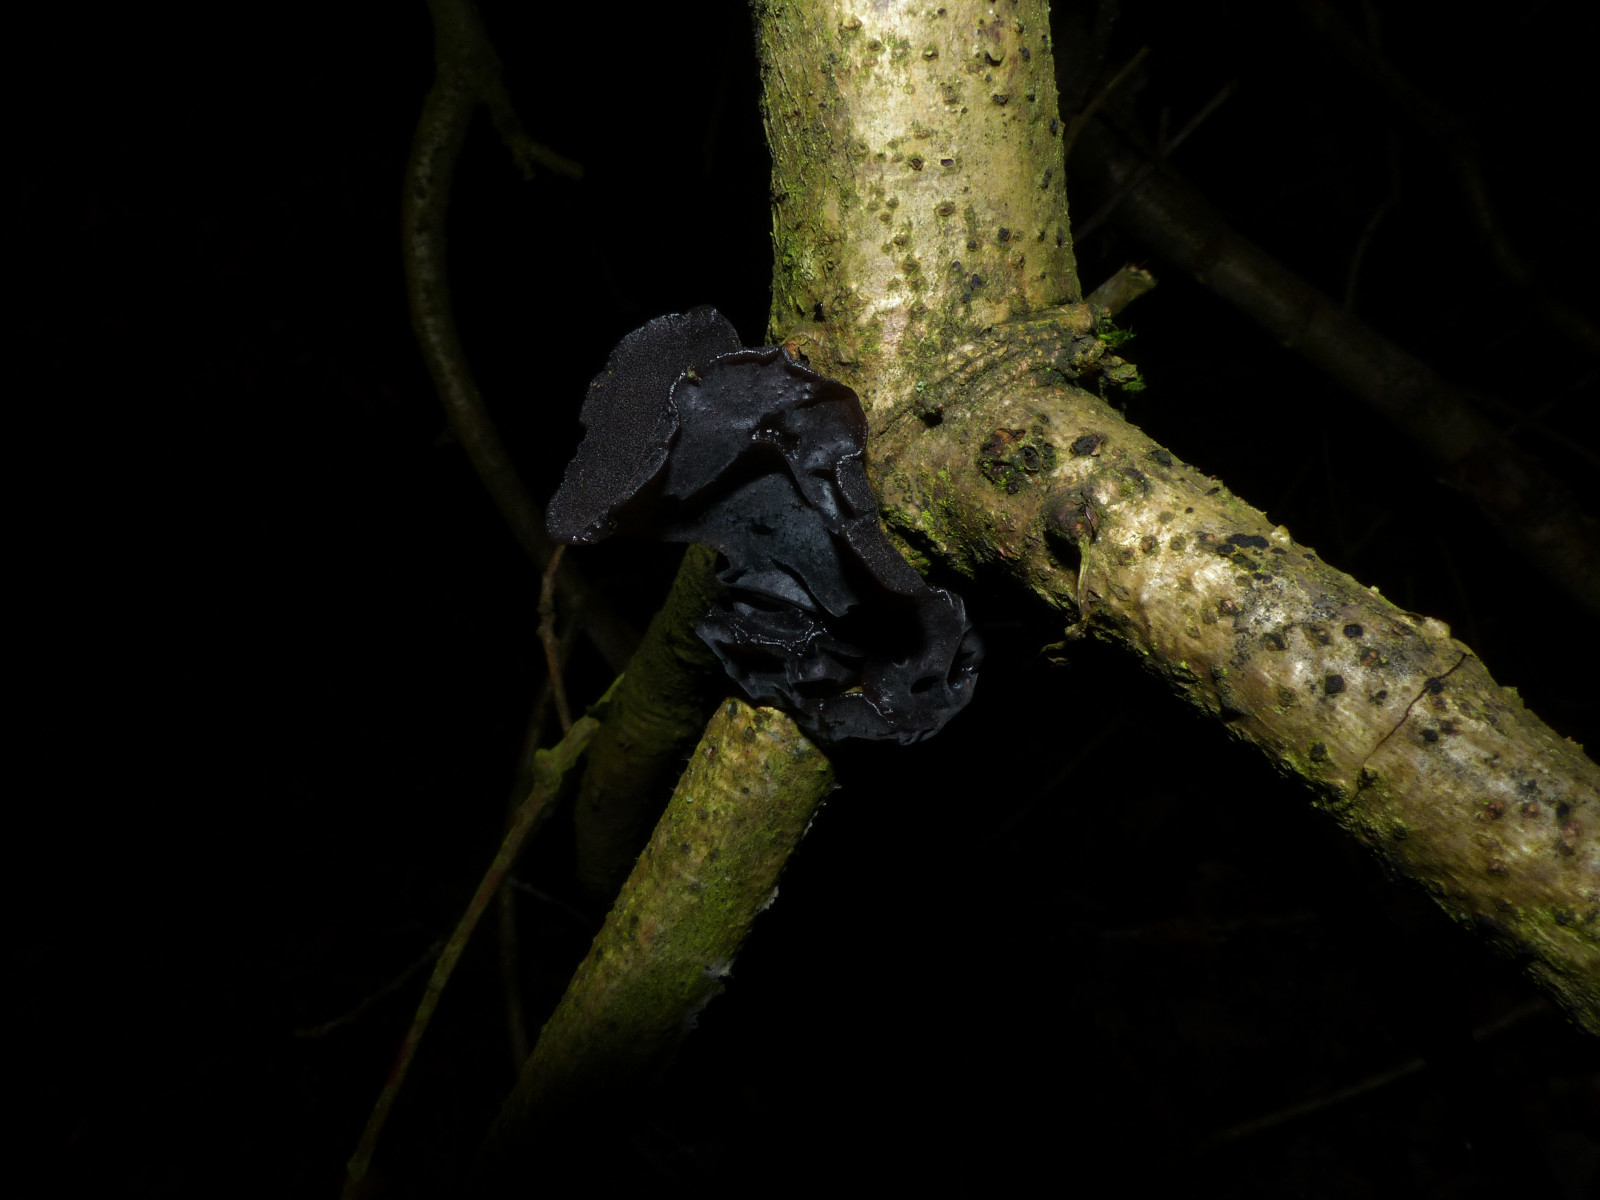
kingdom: Fungi
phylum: Basidiomycota
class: Agaricomycetes
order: Auriculariales
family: Auriculariaceae
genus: Exidia
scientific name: Exidia glandulosa
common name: ege-bævretop
